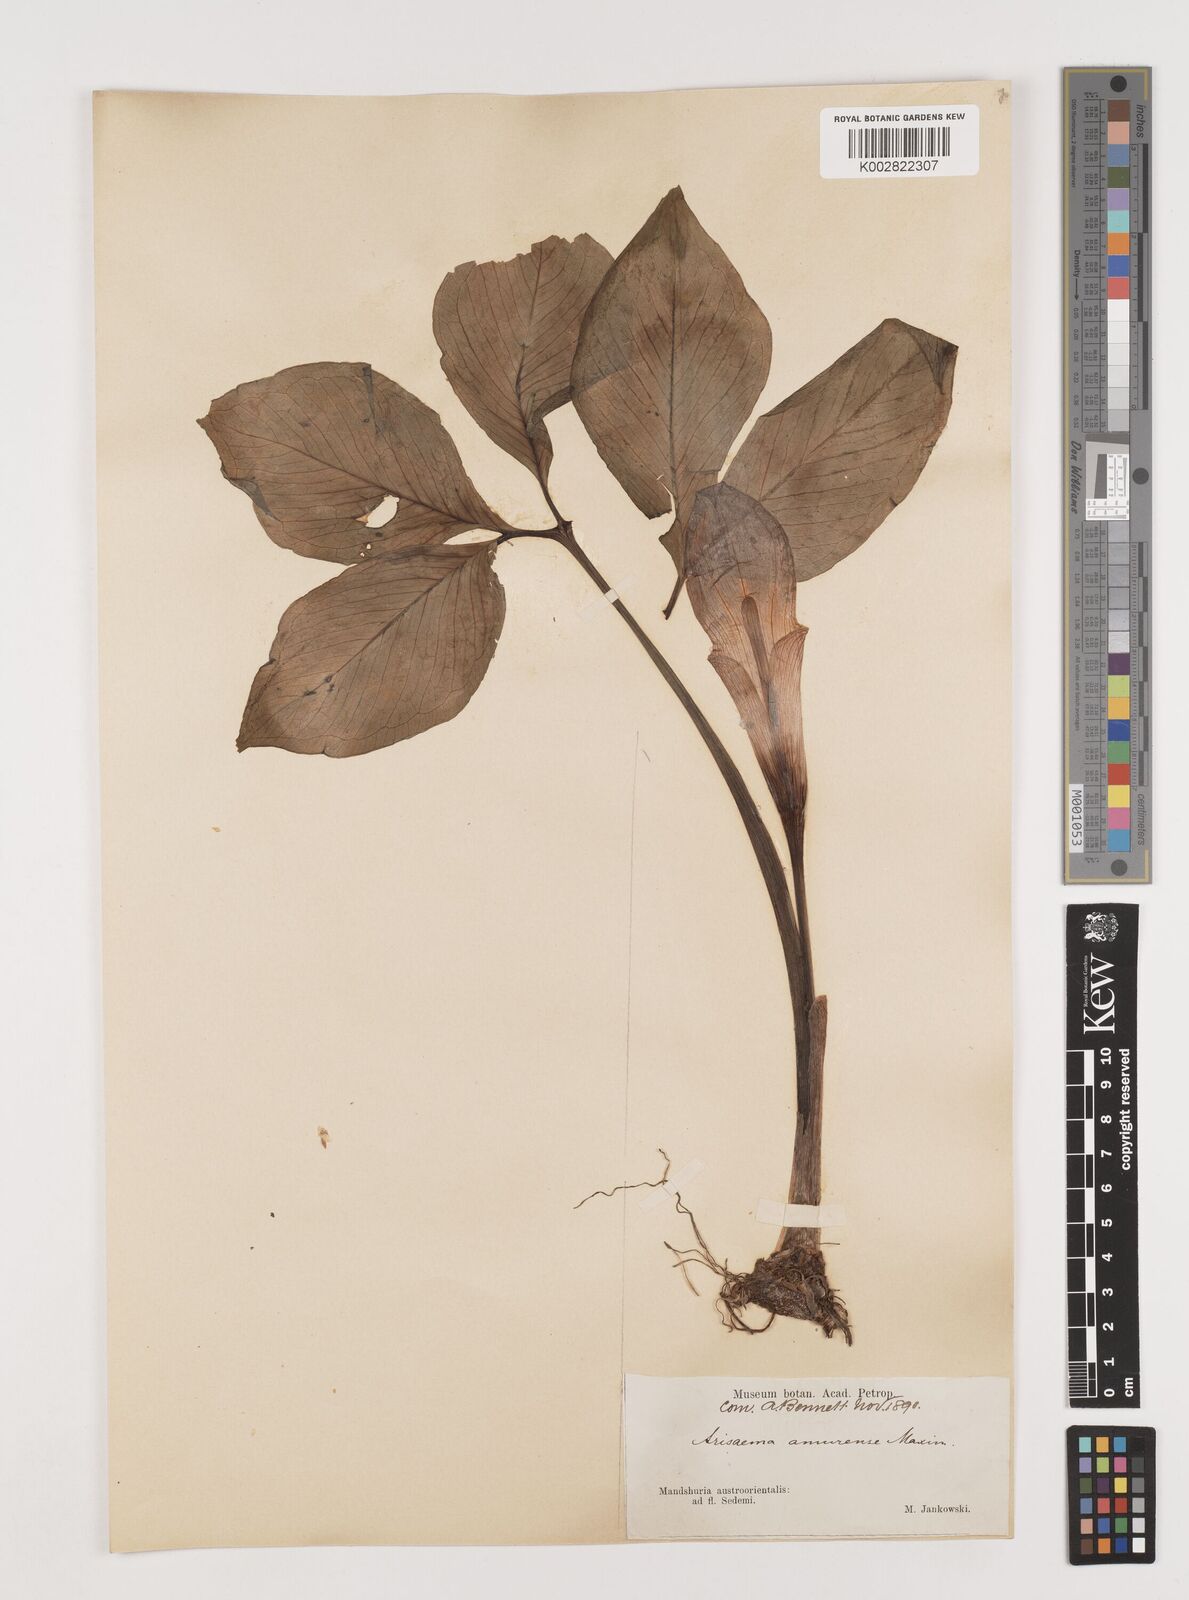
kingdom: Plantae
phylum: Tracheophyta
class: Liliopsida
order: Alismatales
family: Araceae
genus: Arisaema
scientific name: Arisaema amurense
